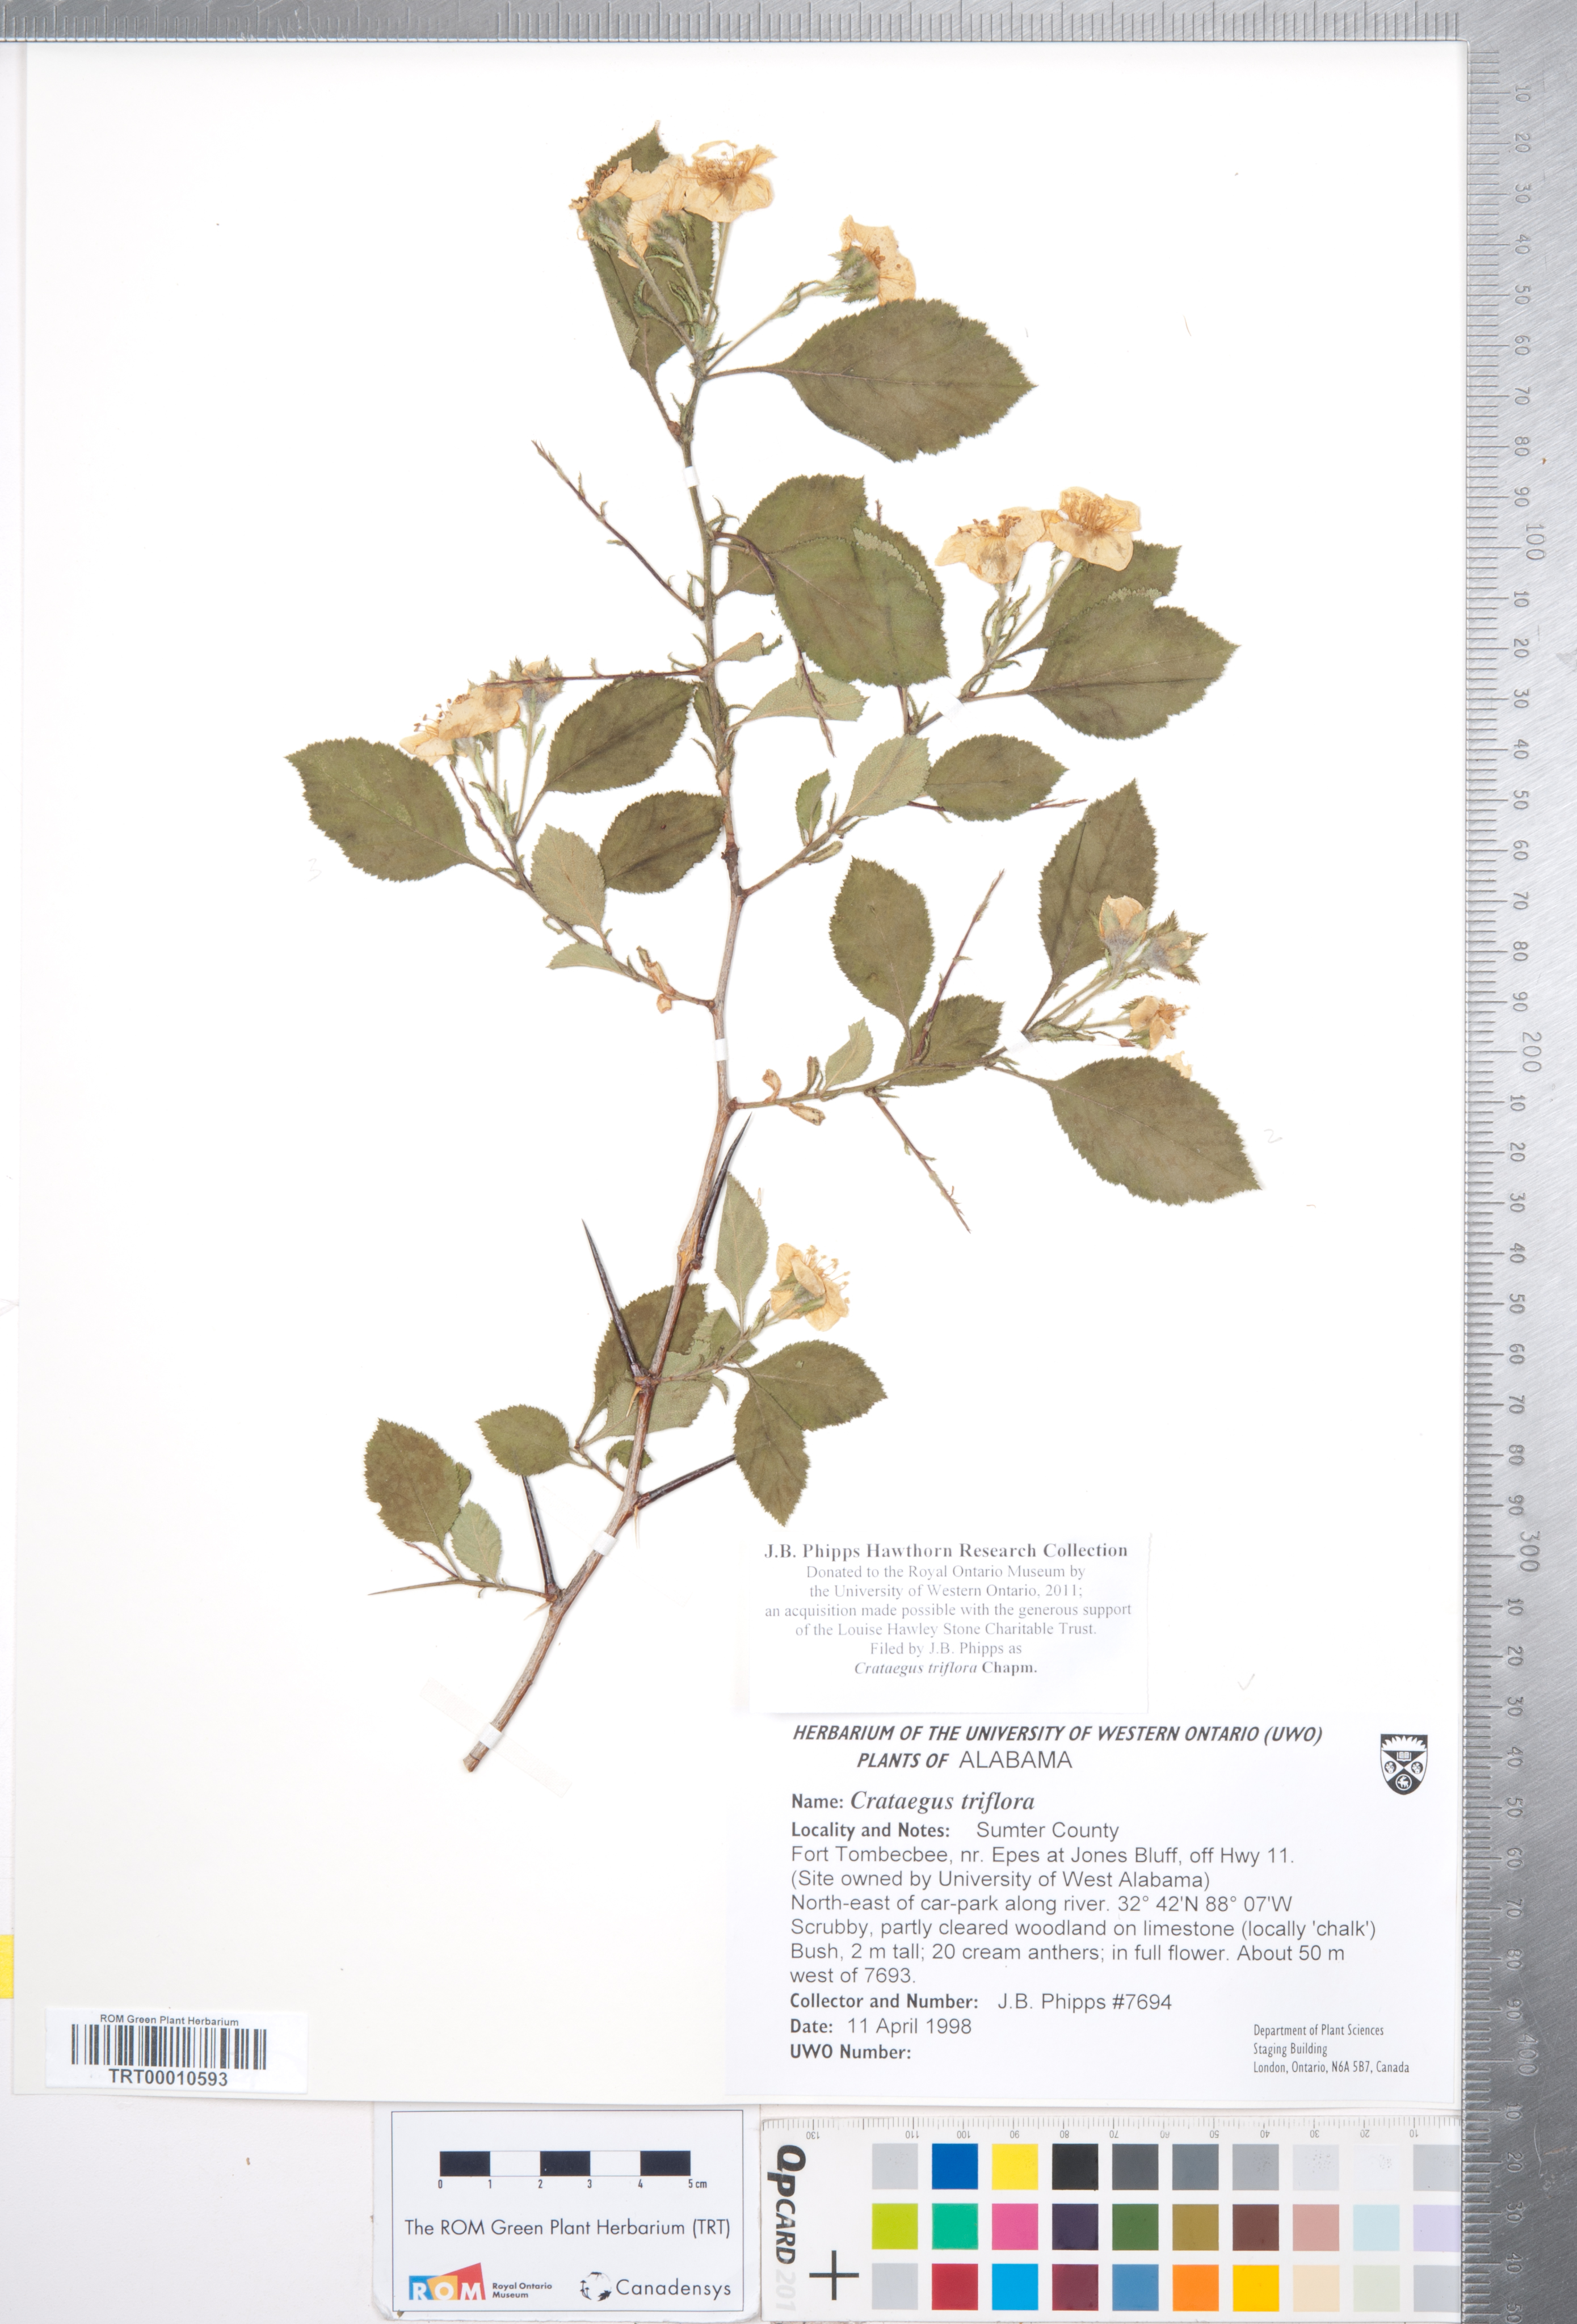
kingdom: Plantae
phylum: Tracheophyta
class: Magnoliopsida
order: Rosales
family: Rosaceae
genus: Crataegus
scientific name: Crataegus triflora
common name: Three-flower hawthorn
